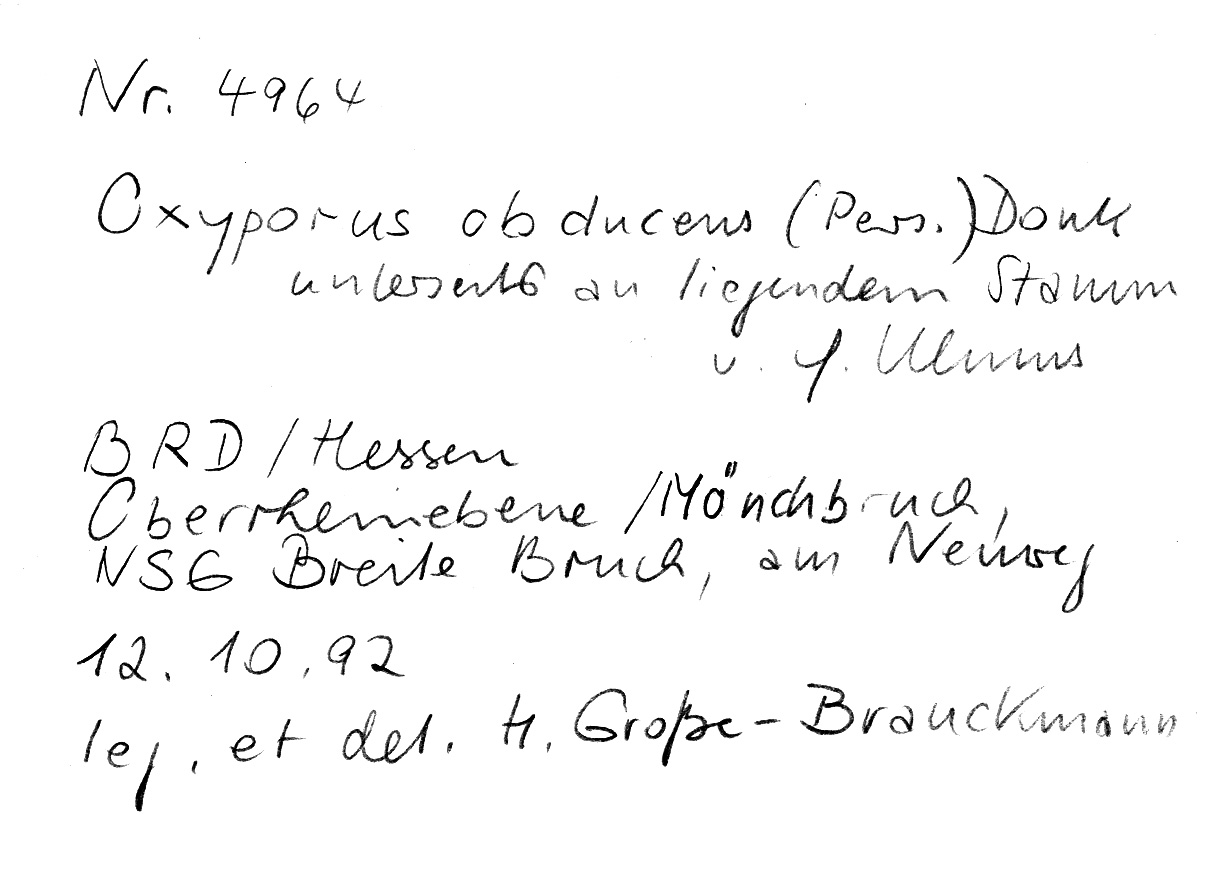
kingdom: Plantae
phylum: Tracheophyta
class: Magnoliopsida
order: Rosales
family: Ulmaceae
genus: Ulmus
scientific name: Ulmus
